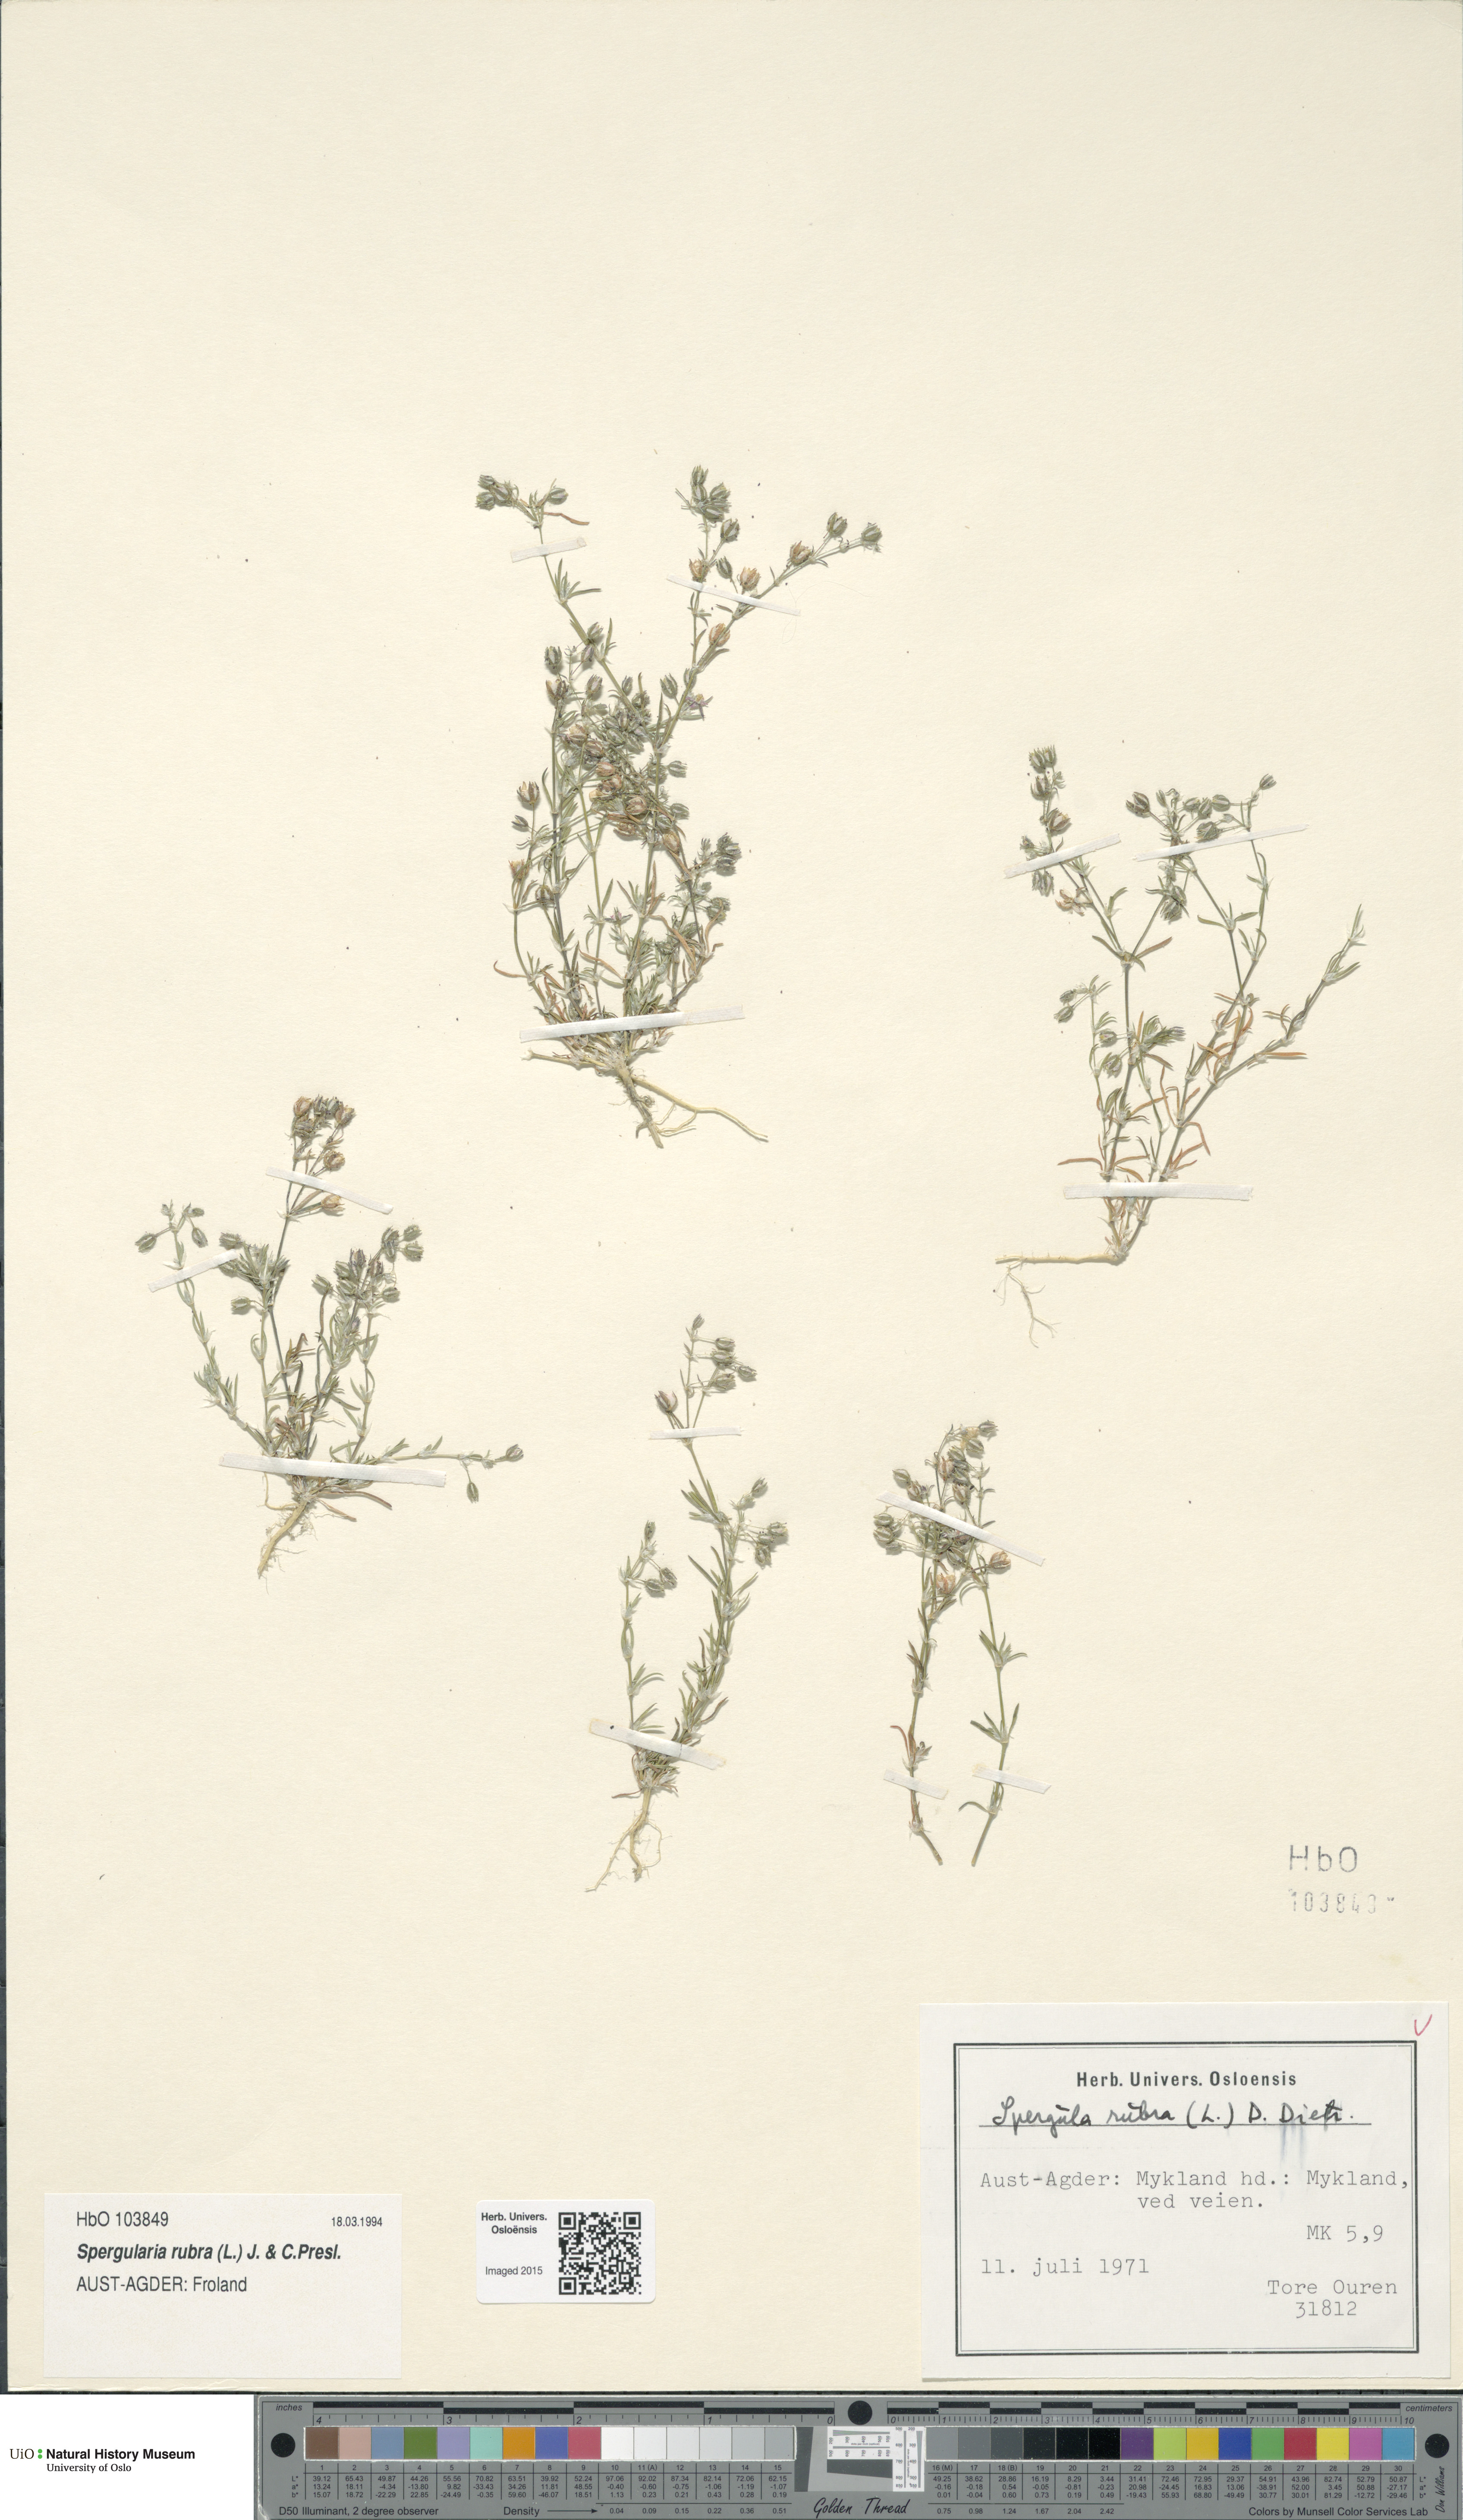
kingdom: Plantae
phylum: Tracheophyta
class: Magnoliopsida
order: Caryophyllales
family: Caryophyllaceae
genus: Spergularia
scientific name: Spergularia rubra
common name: Red sand-spurrey
